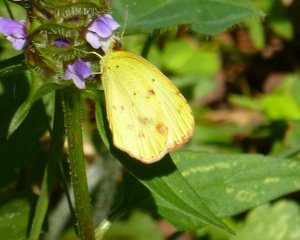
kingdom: Animalia
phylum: Arthropoda
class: Insecta
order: Lepidoptera
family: Pieridae
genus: Pyrisitia
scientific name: Pyrisitia lisa
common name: Little Yellow
